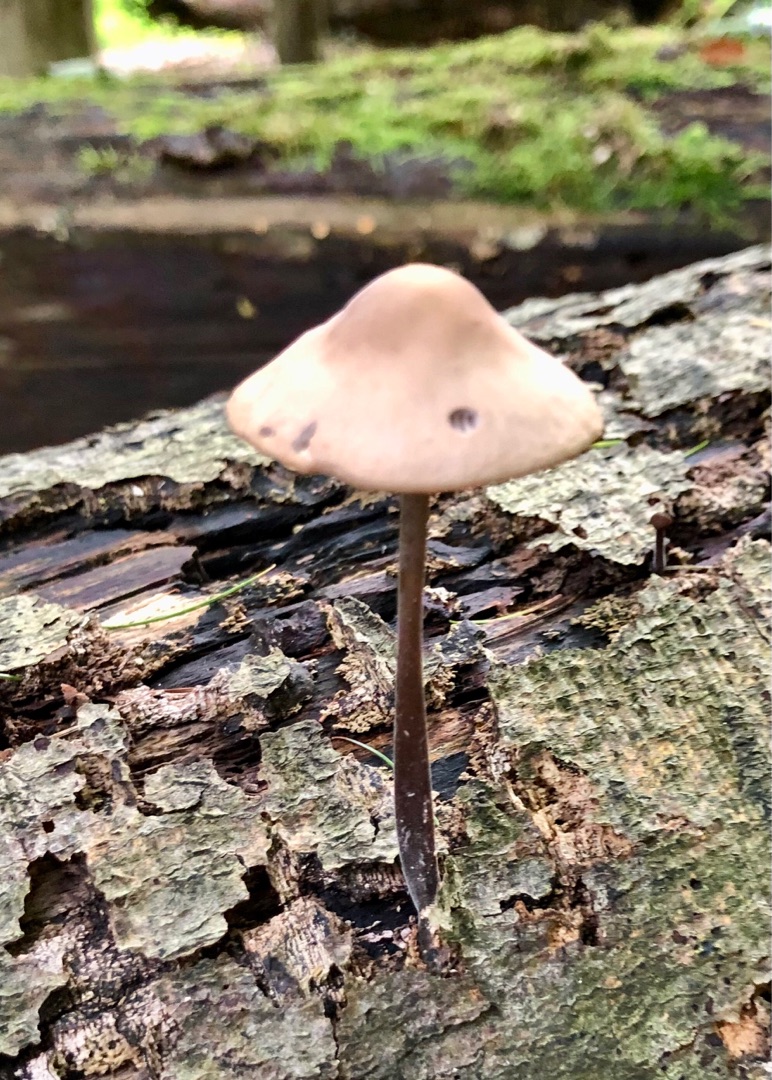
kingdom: Fungi
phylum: Basidiomycota
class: Agaricomycetes
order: Agaricales
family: Omphalotaceae
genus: Mycetinis
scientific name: Mycetinis alliaceus
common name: Stor løghat
